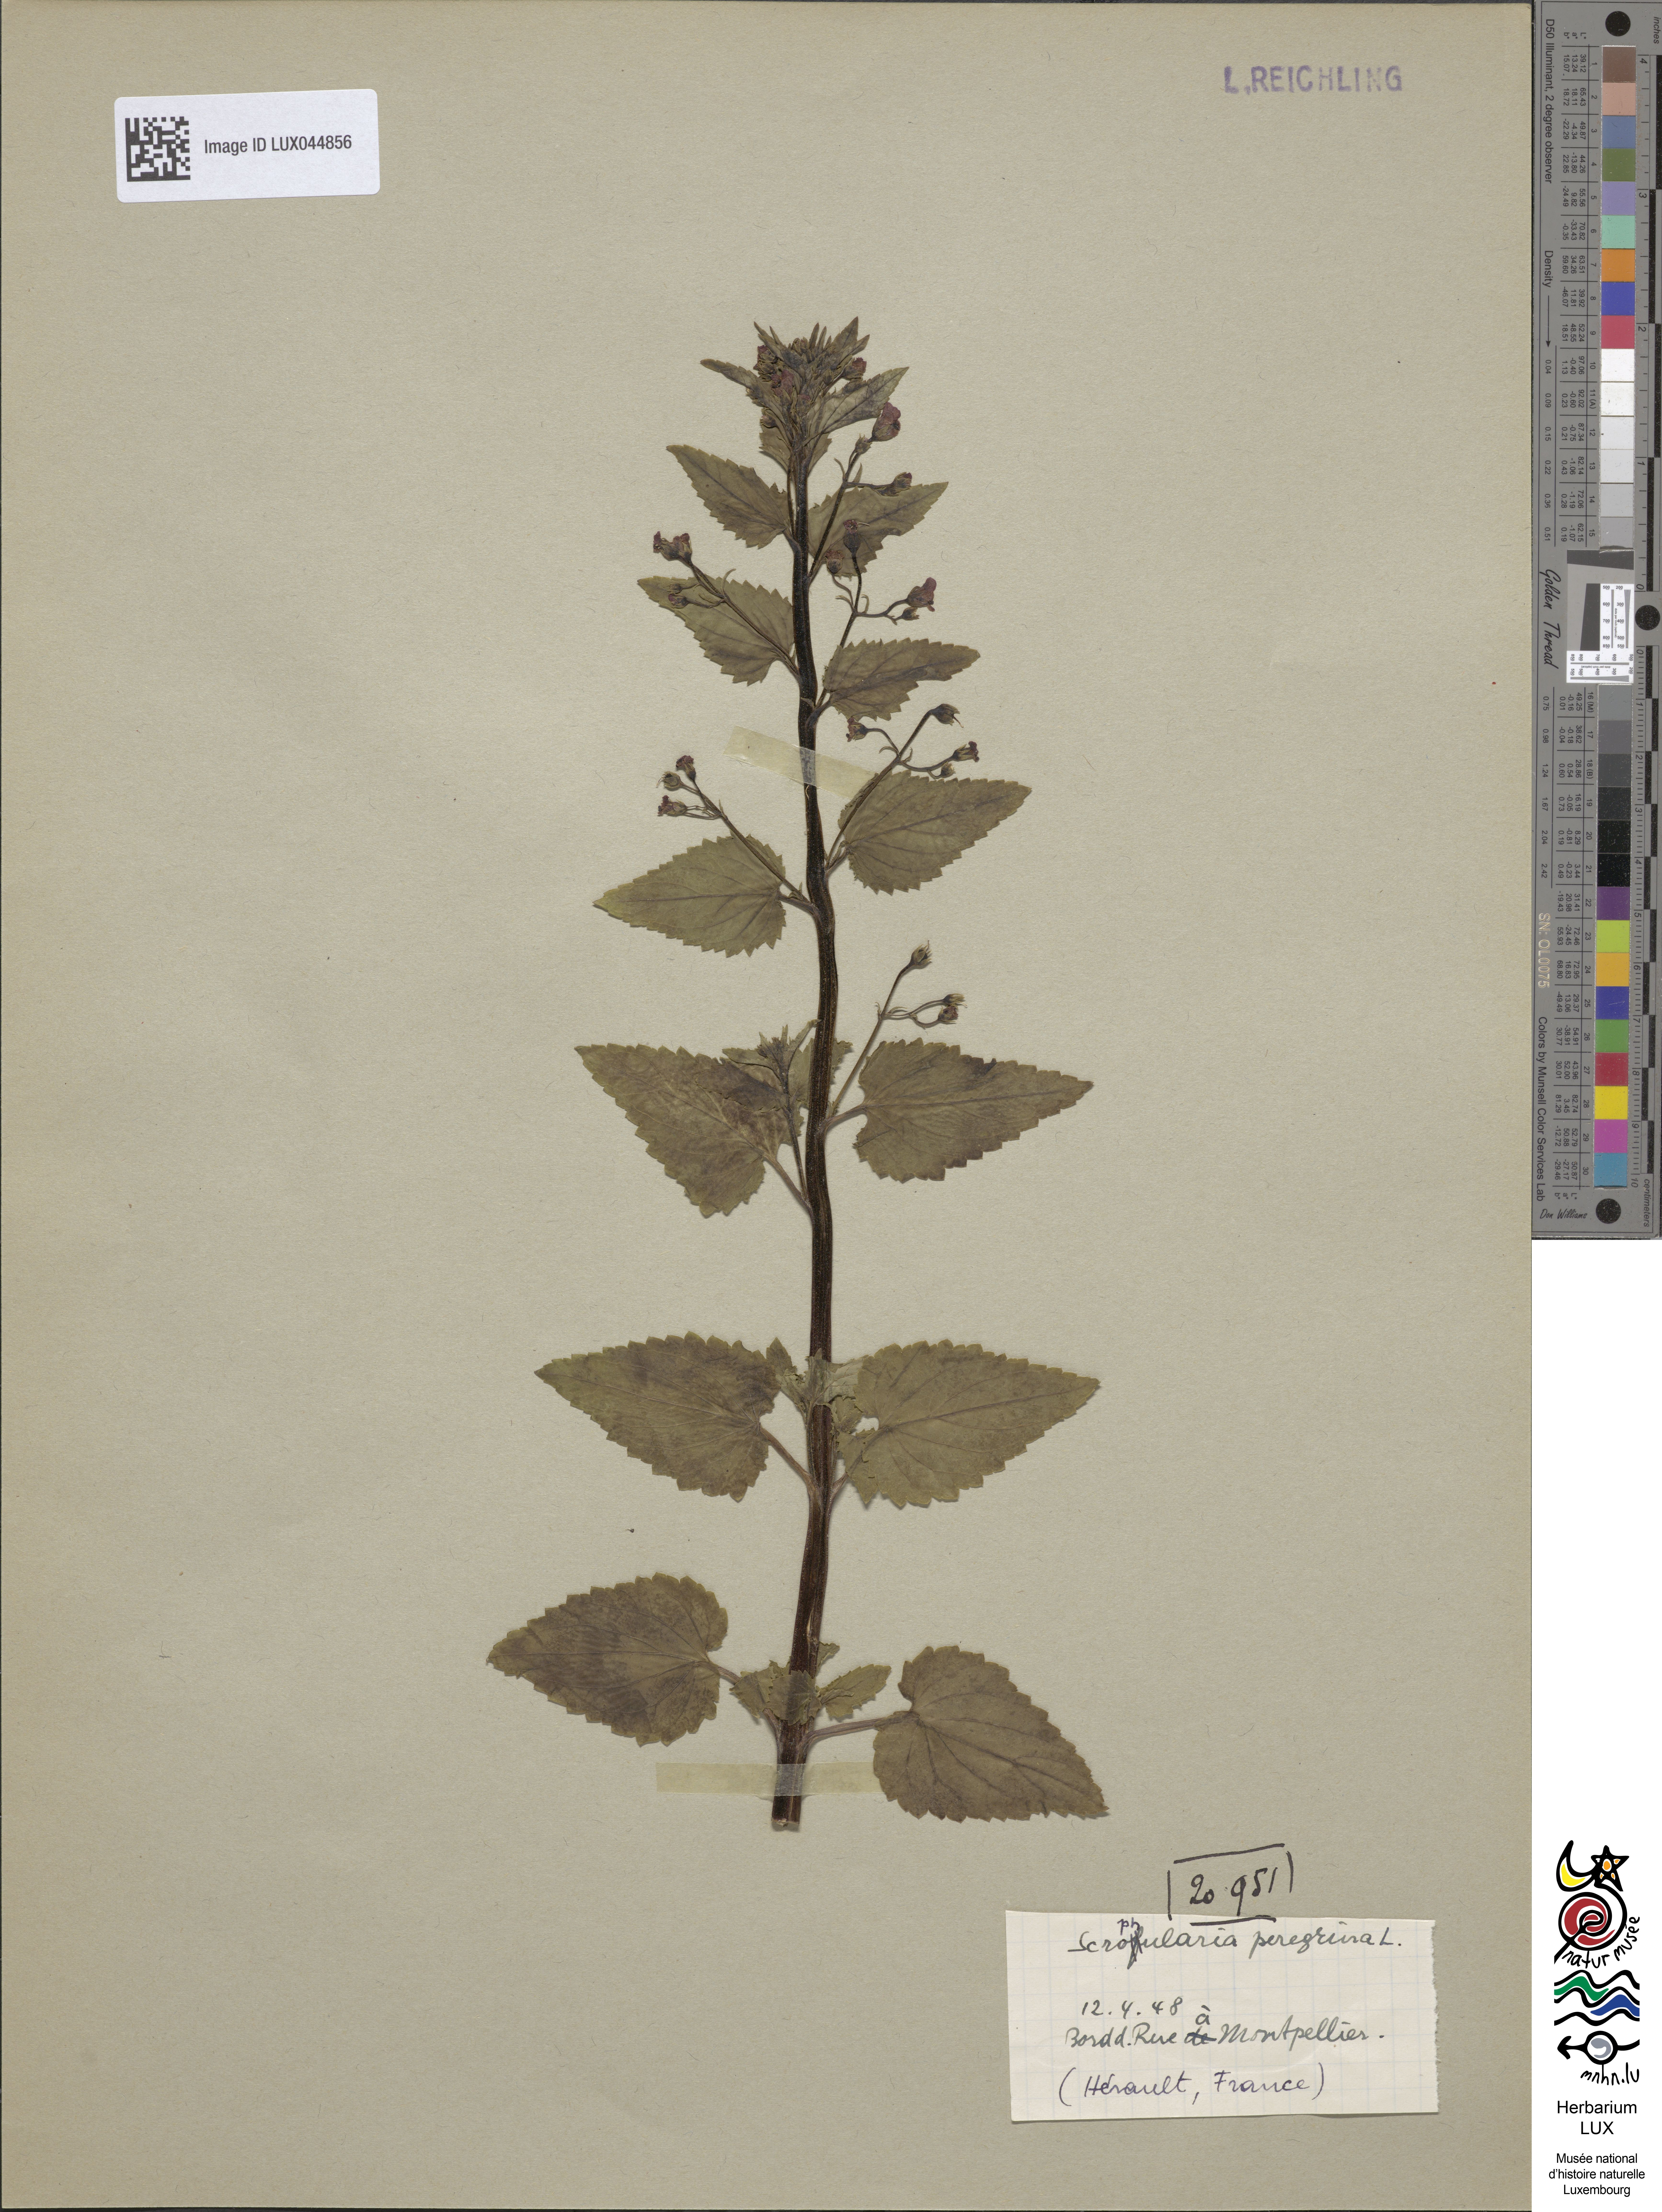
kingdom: Plantae
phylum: Tracheophyta
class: Magnoliopsida
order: Lamiales
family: Scrophulariaceae
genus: Scrophularia
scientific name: Scrophularia peregrina
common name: Mediterranean figwort
